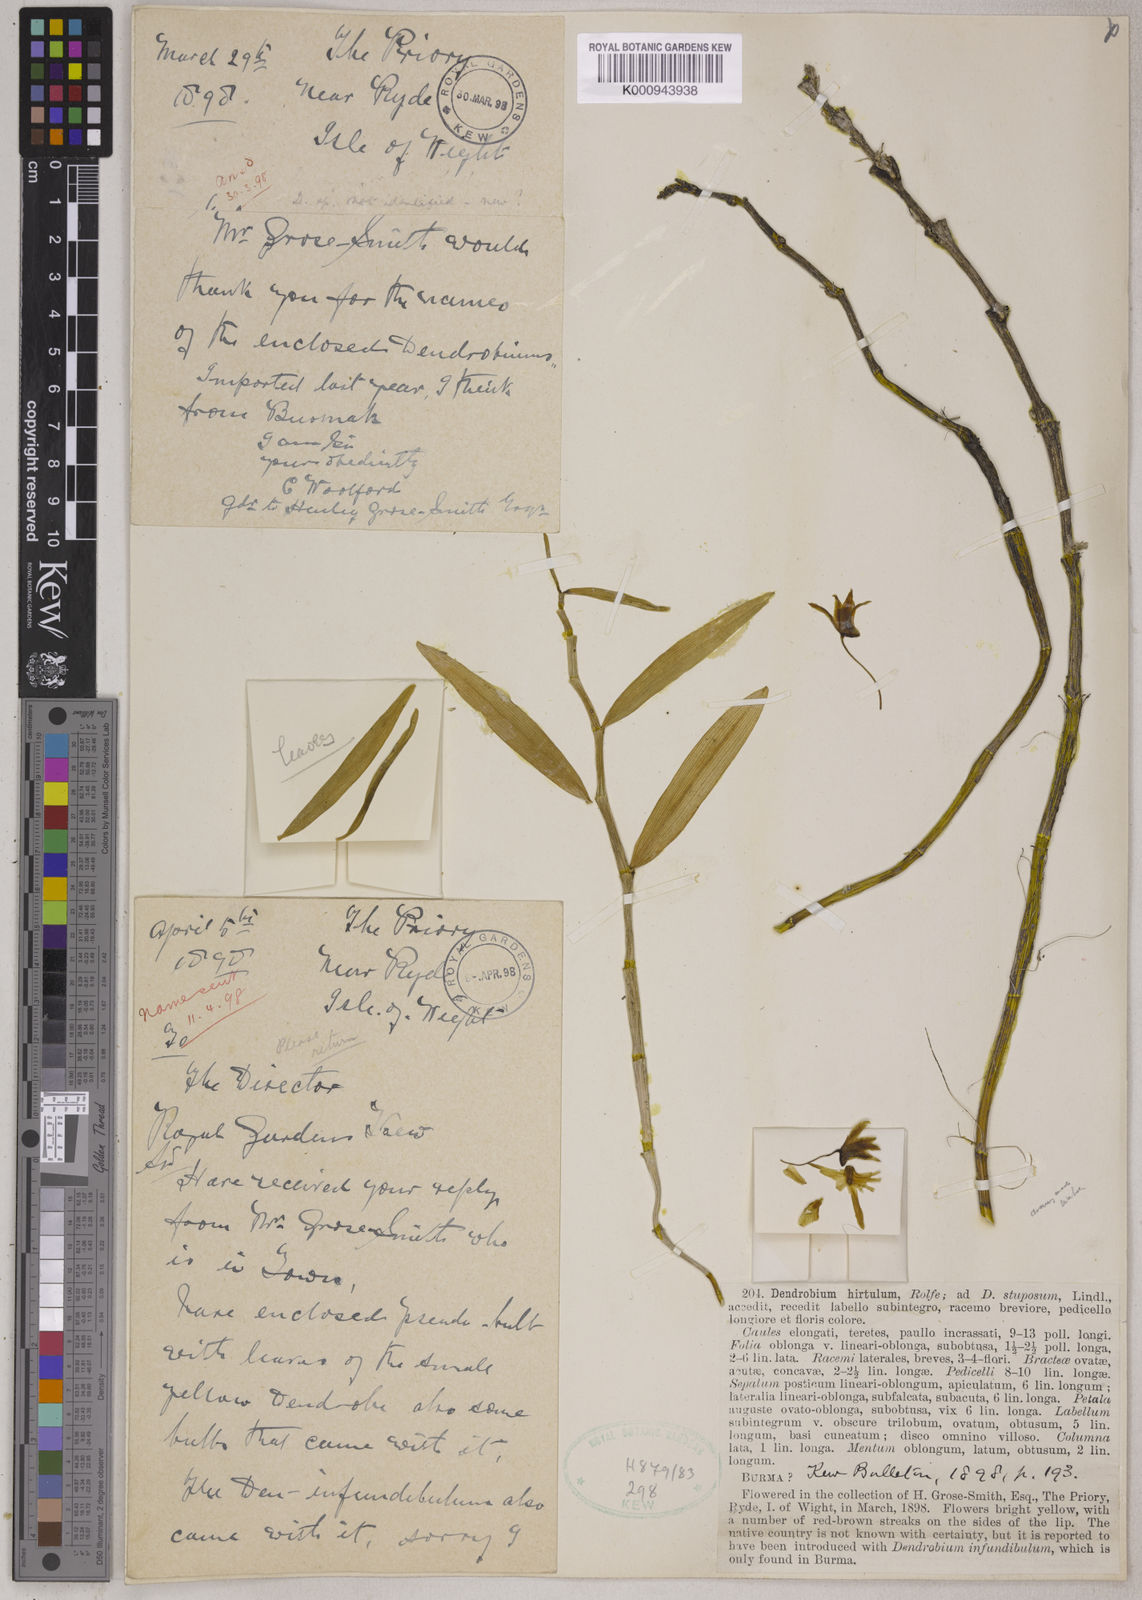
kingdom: Plantae
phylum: Tracheophyta
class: Liliopsida
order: Asparagales
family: Orchidaceae
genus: Dendrobium
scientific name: Dendrobium hirtulum
